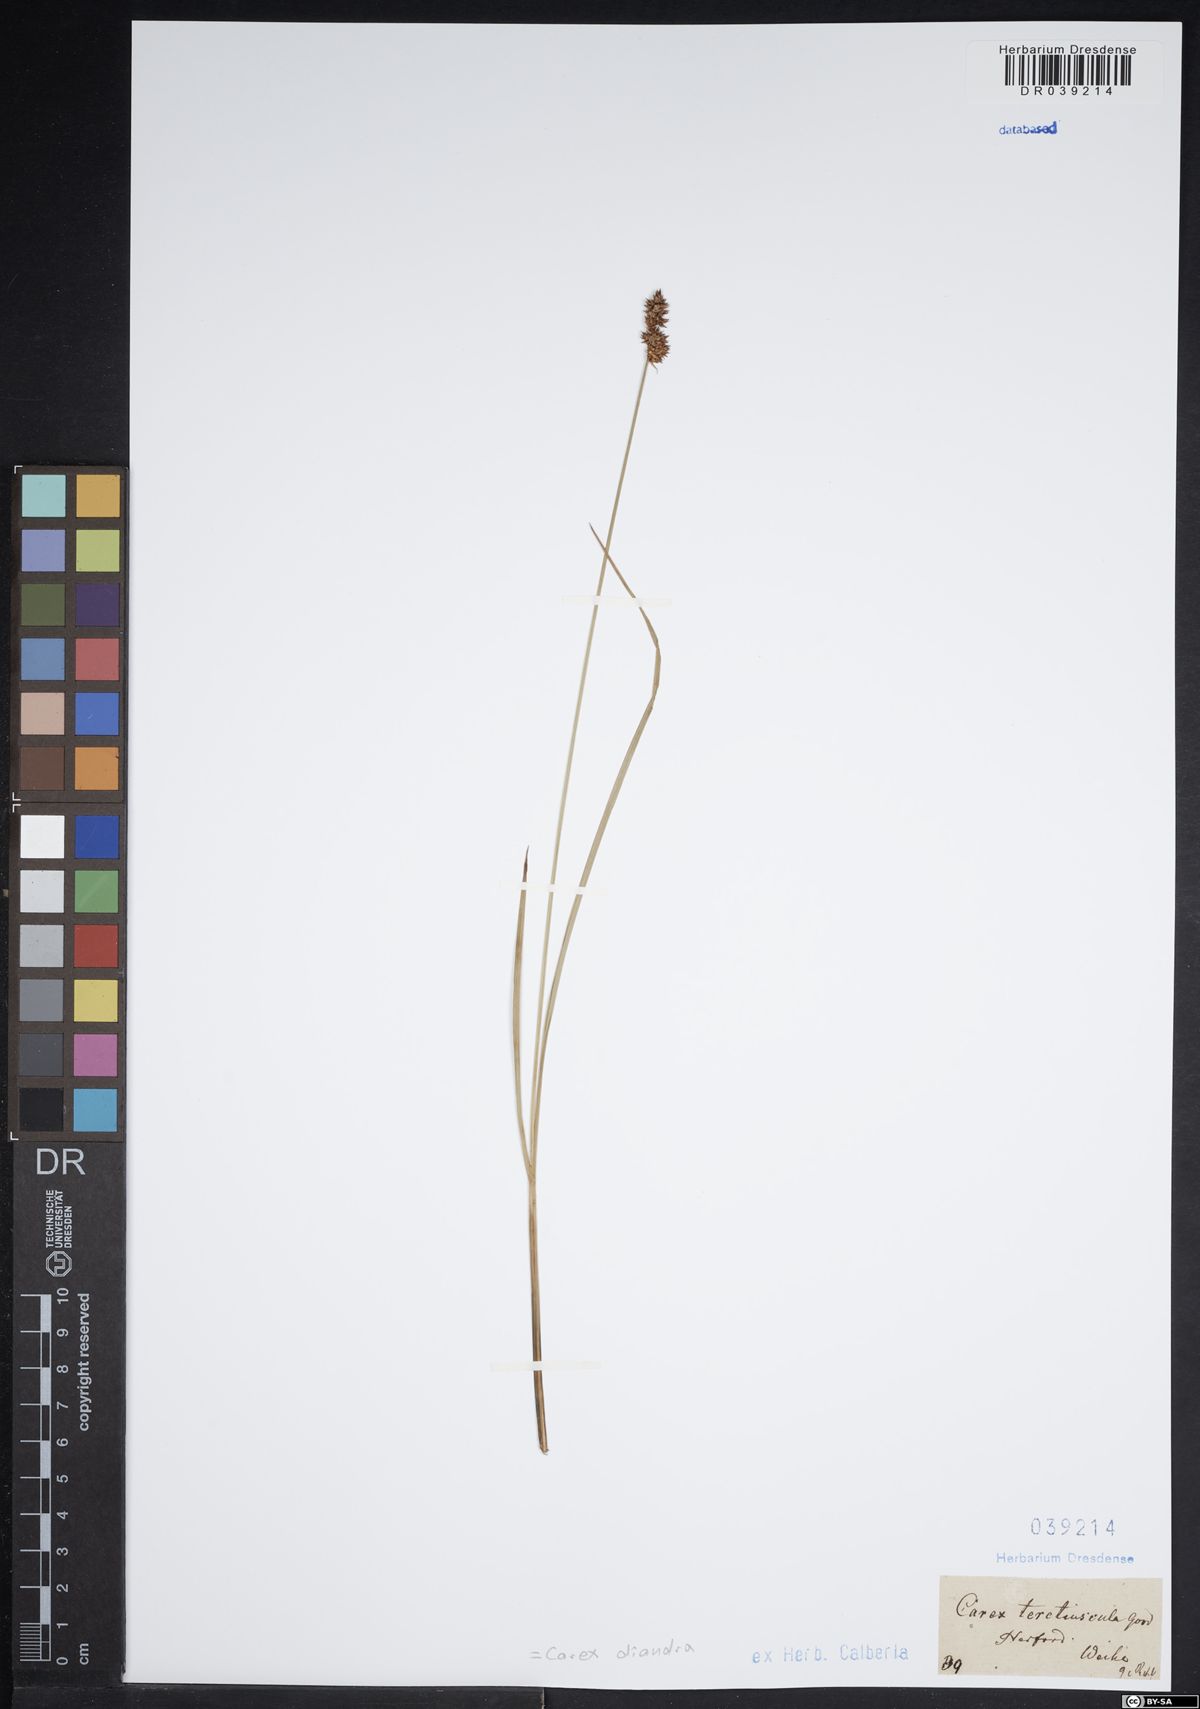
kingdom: Plantae
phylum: Tracheophyta
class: Liliopsida
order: Poales
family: Cyperaceae
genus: Carex
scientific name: Carex diandra
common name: Lesser tussock-sedge
